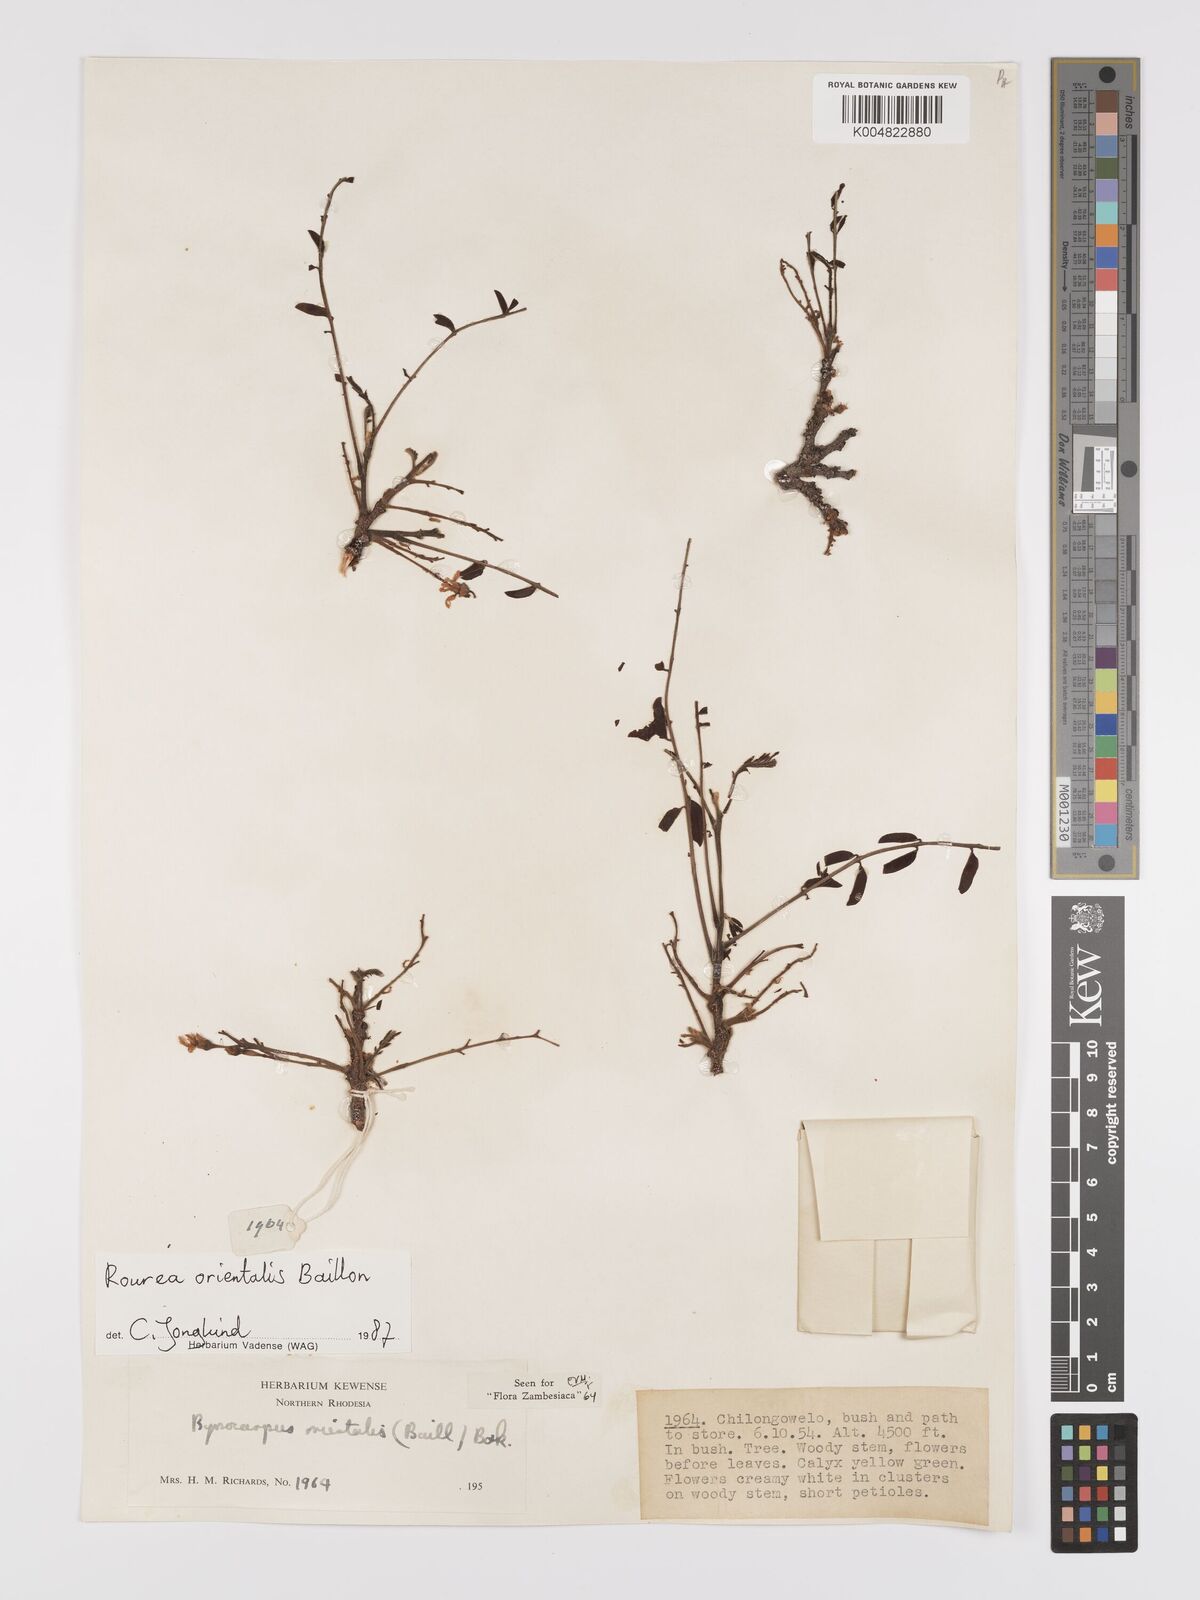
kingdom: Plantae
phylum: Tracheophyta
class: Magnoliopsida
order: Oxalidales
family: Connaraceae
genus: Rourea
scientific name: Rourea orientalis
